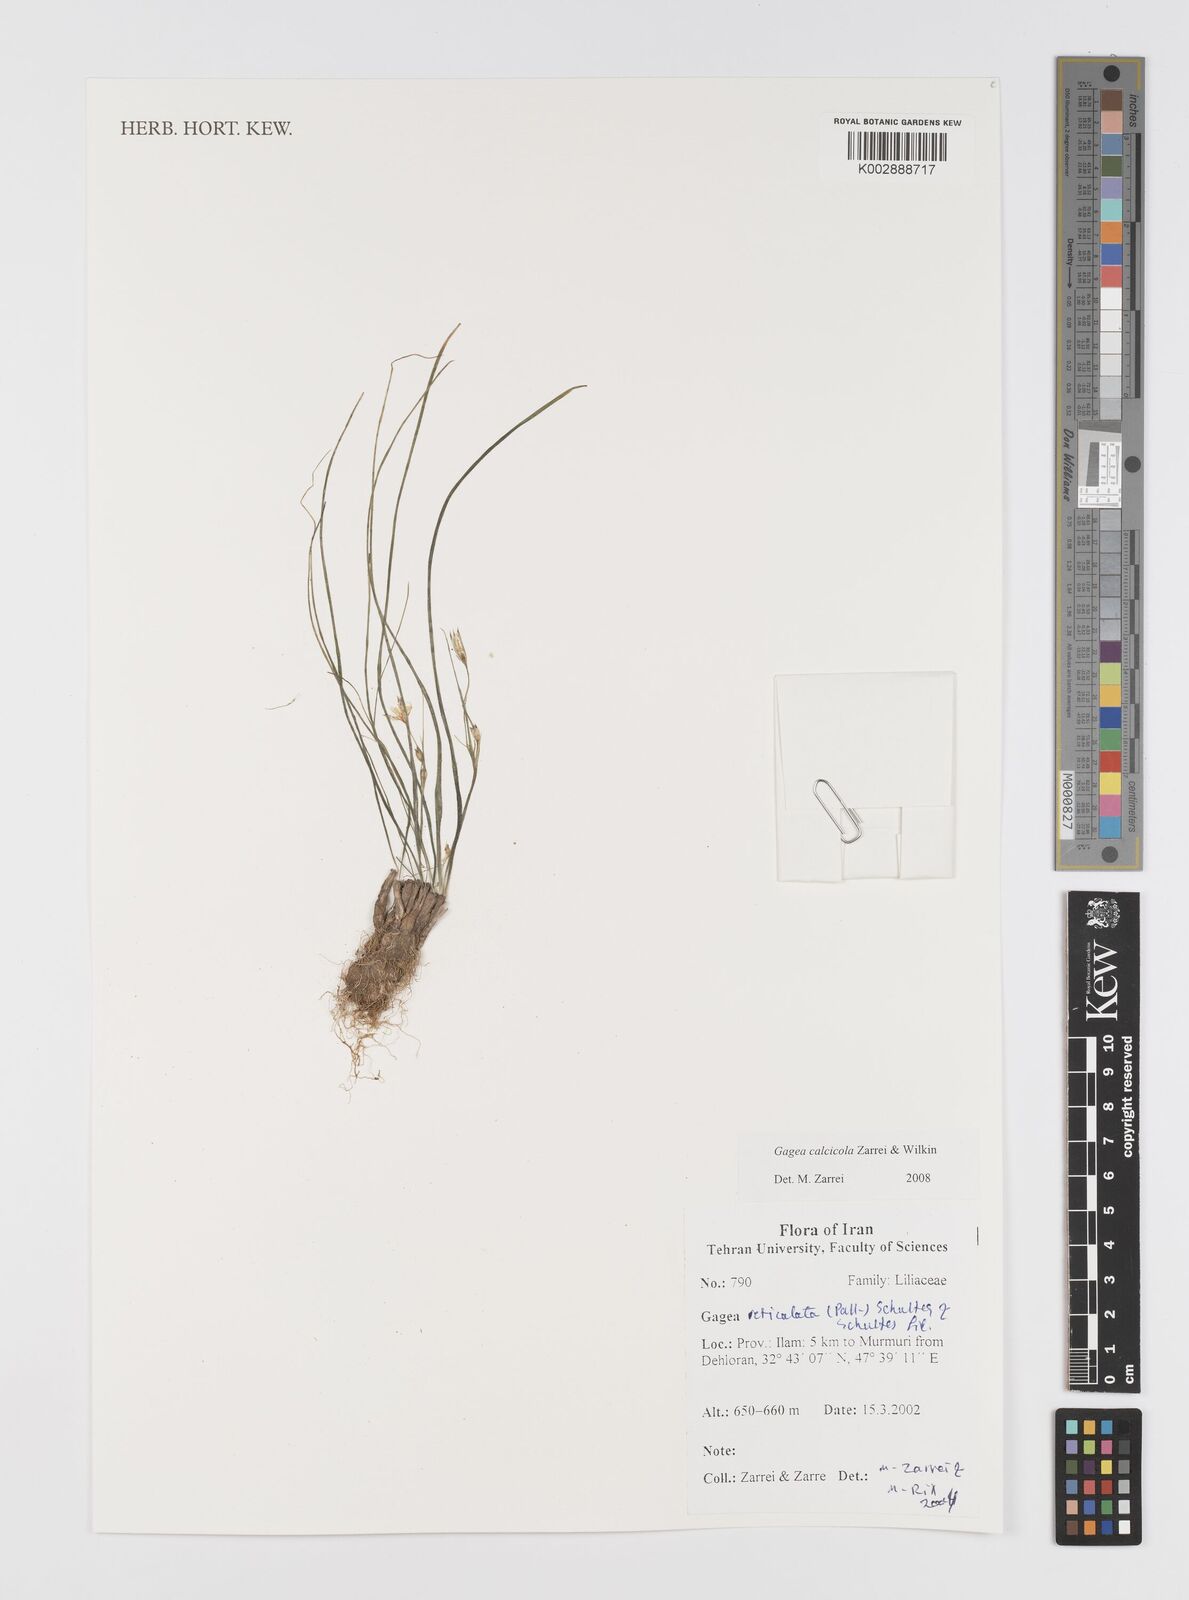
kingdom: Plantae
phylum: Tracheophyta
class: Liliopsida
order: Liliales
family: Liliaceae
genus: Gagea
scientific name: Gagea calcicola
